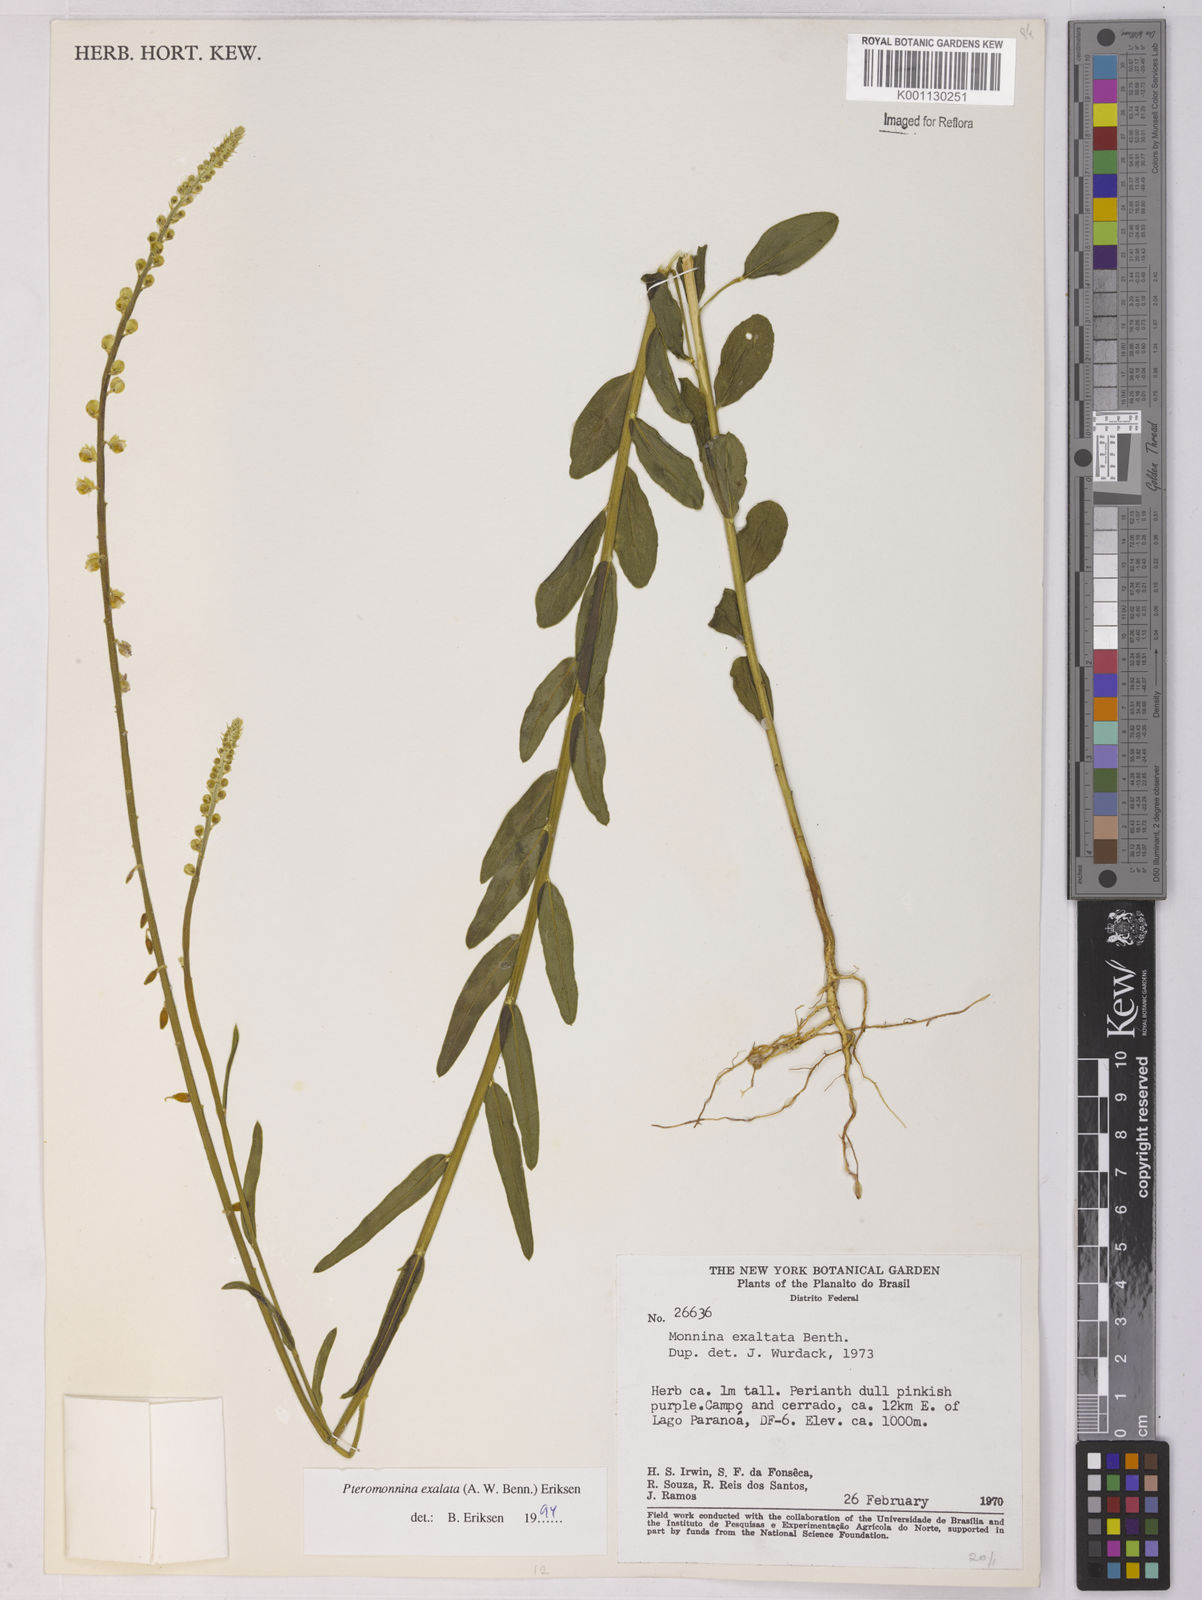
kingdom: Plantae
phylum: Tracheophyta
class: Magnoliopsida
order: Fabales
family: Polygalaceae
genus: Monnina
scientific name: Monnina exalata
